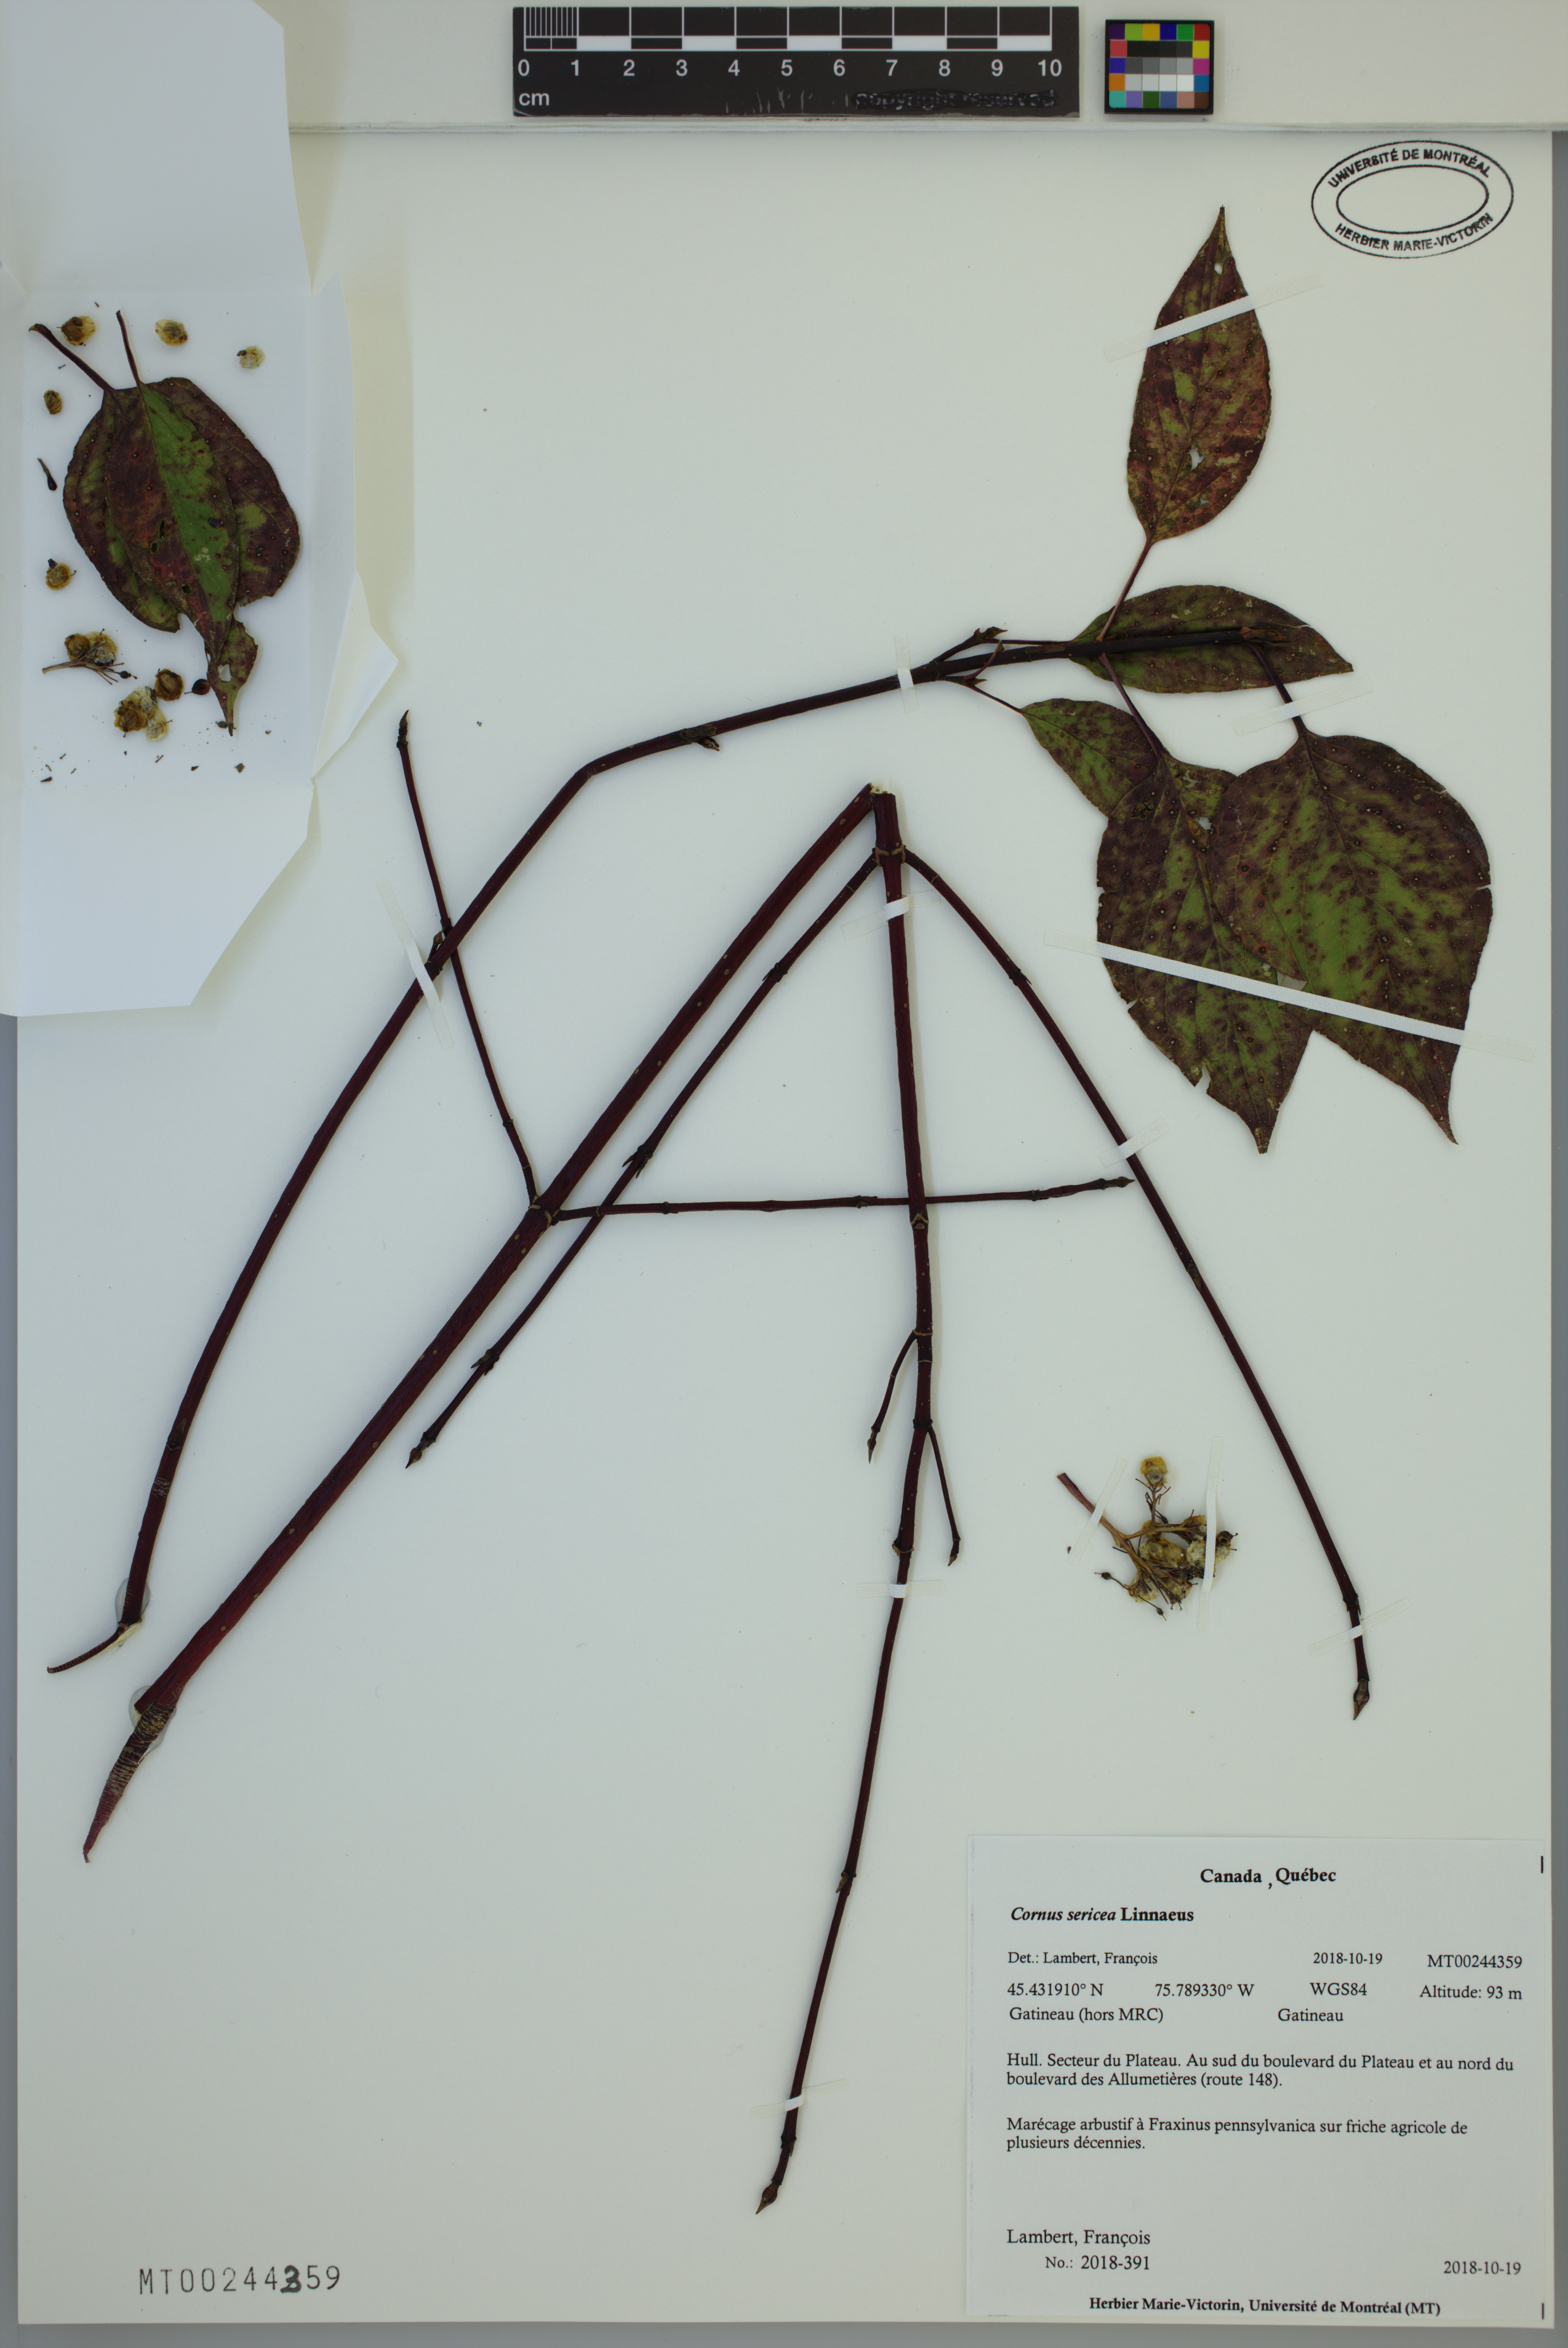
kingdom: Plantae
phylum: Tracheophyta
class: Magnoliopsida
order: Cornales
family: Cornaceae
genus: Cornus
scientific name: Cornus sericea
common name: Red-osier dogwood
